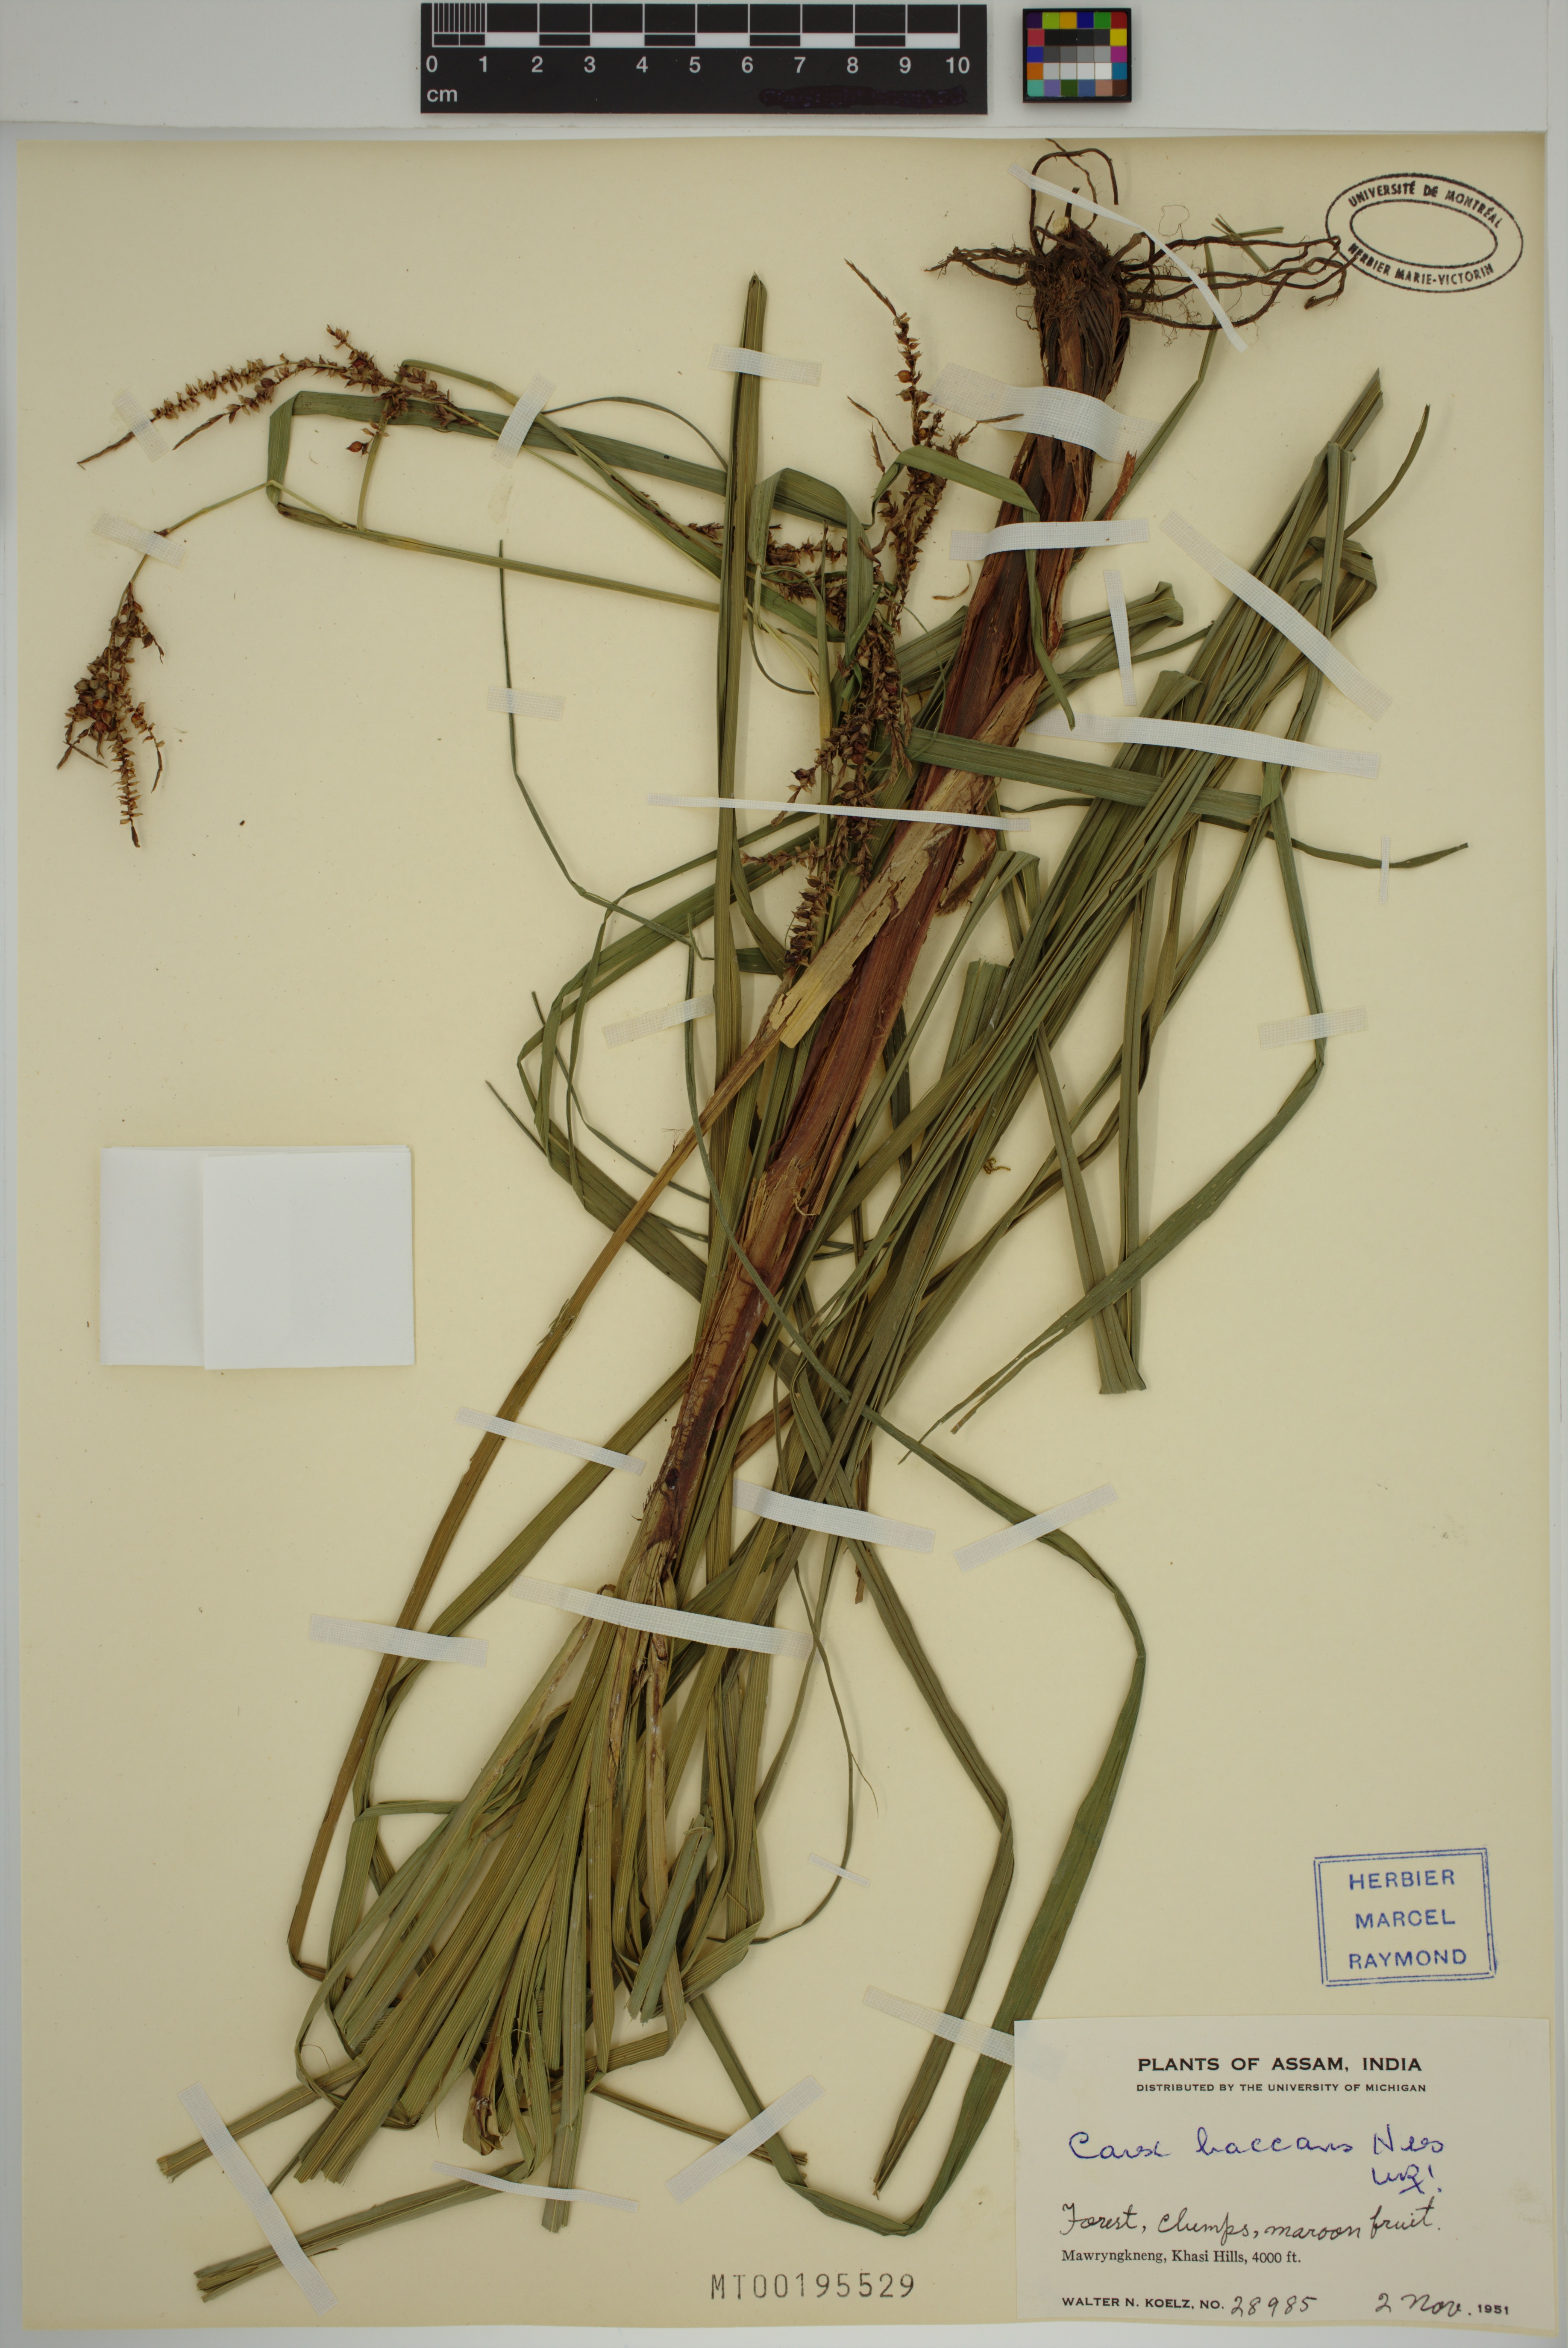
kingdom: Plantae
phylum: Tracheophyta
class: Liliopsida
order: Poales
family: Cyperaceae
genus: Carex
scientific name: Carex baccans
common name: Crimson seeded sedge
